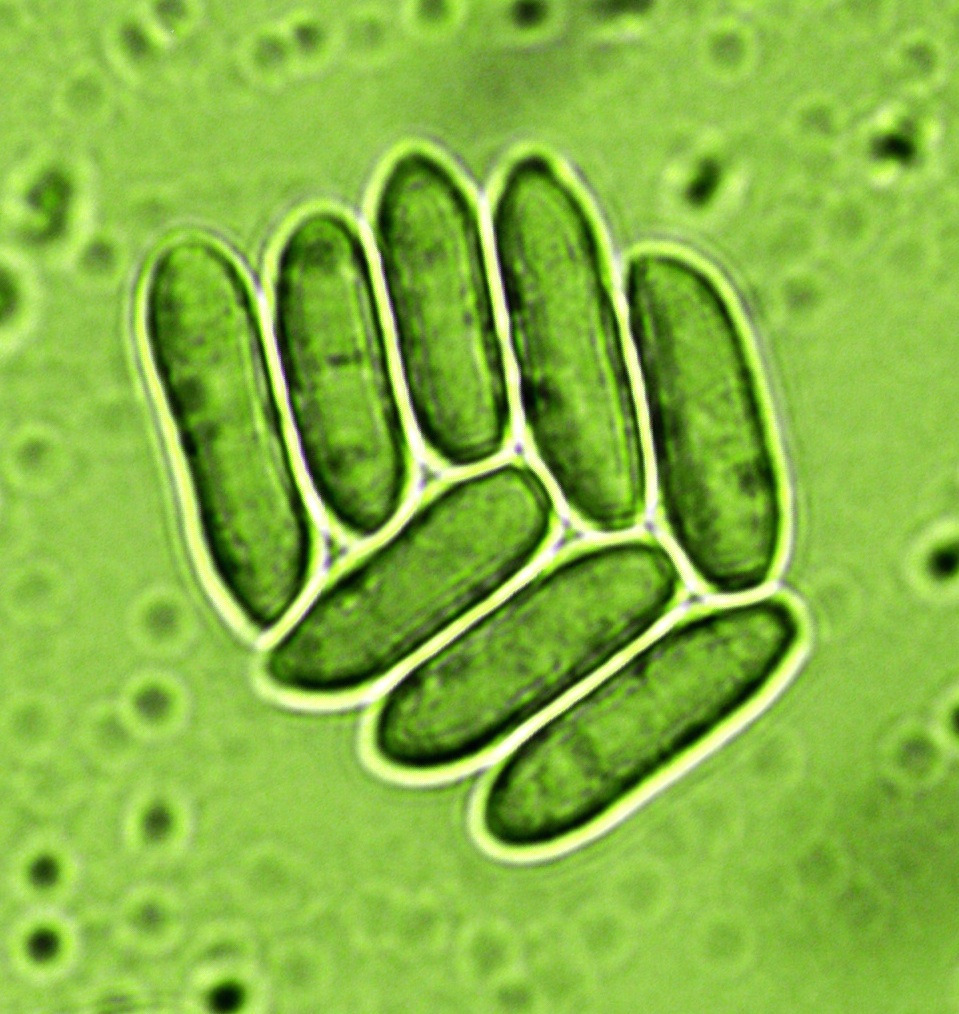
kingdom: Fungi
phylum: Ascomycota
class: Dothideomycetes
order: Pleosporales
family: Didymellaceae
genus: Ascochyta
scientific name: Ascochyta equiseti
